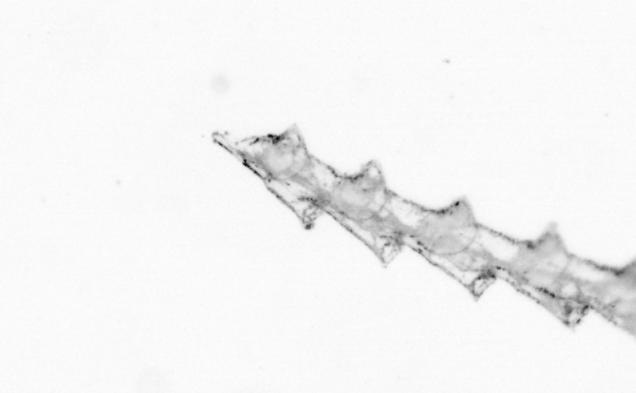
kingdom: Chromista
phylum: Ochrophyta
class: Bacillariophyceae
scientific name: Bacillariophyceae
